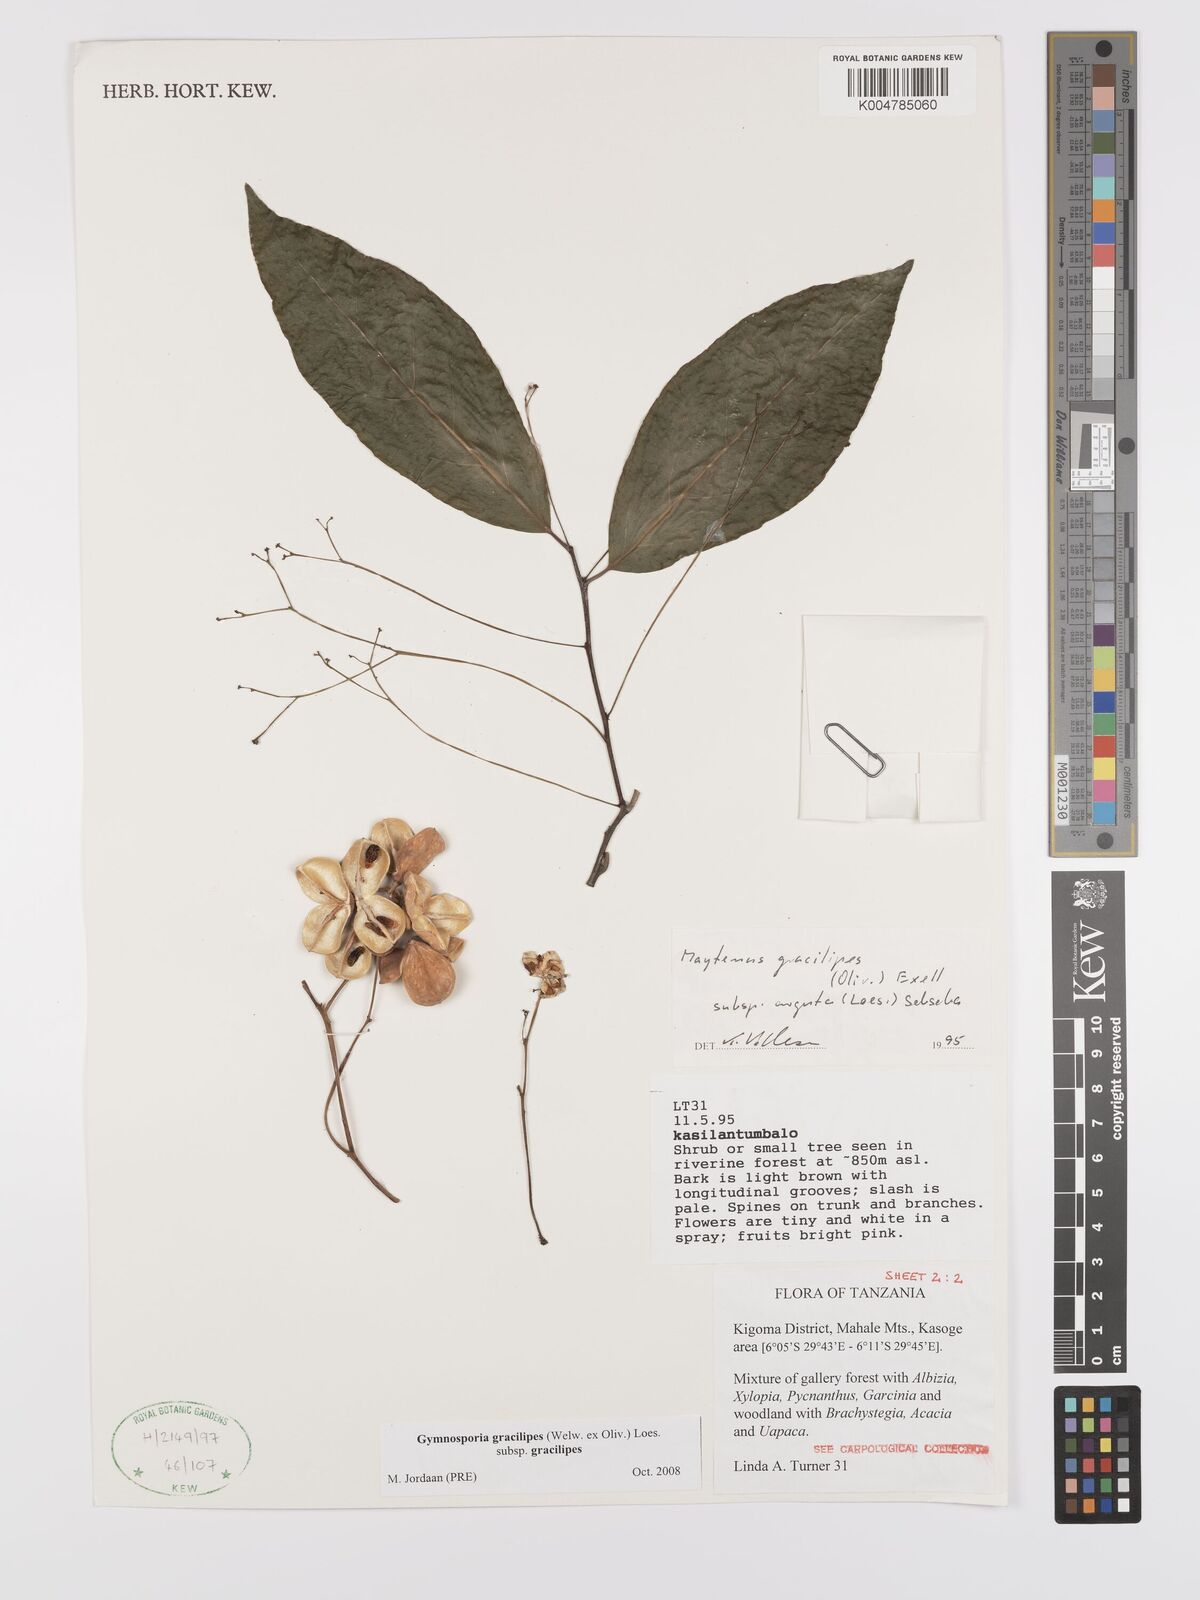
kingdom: Plantae
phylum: Tracheophyta
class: Magnoliopsida
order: Celastrales
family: Celastraceae
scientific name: Celastraceae
